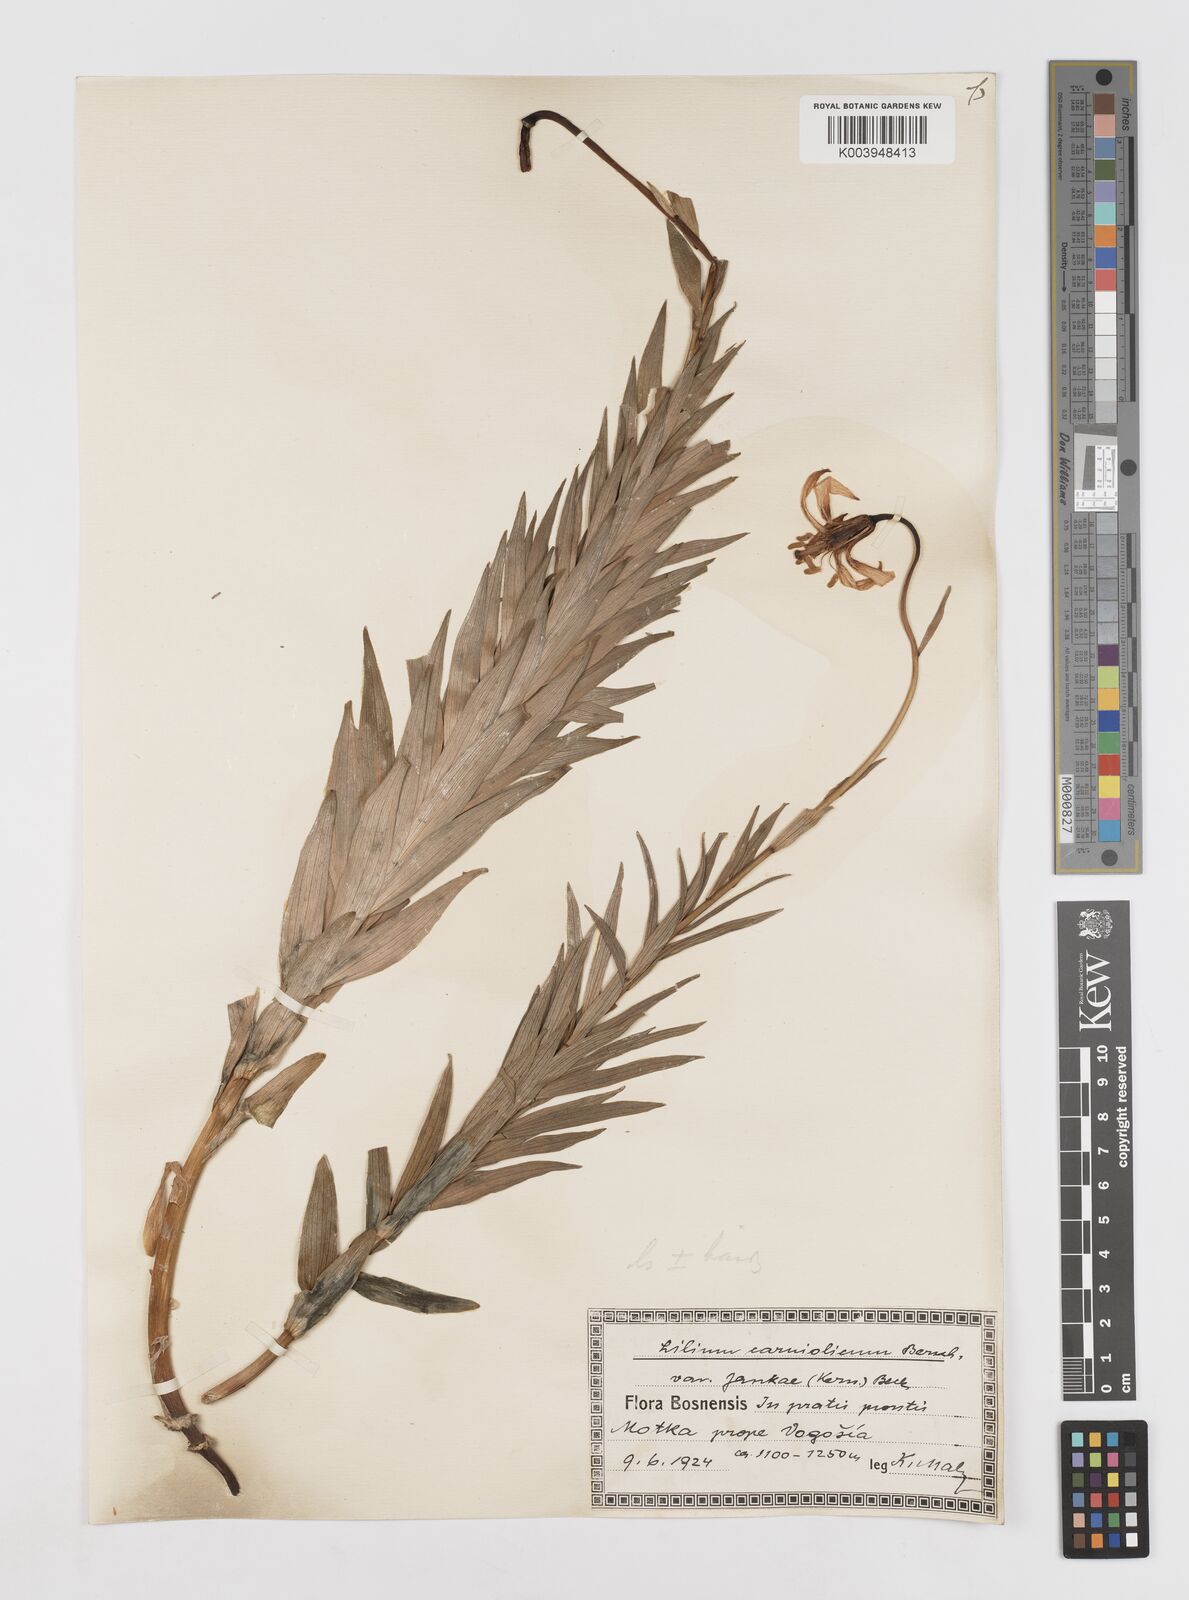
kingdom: Plantae
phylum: Tracheophyta
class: Liliopsida
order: Liliales
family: Liliaceae
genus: Lilium
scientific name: Lilium jankae
